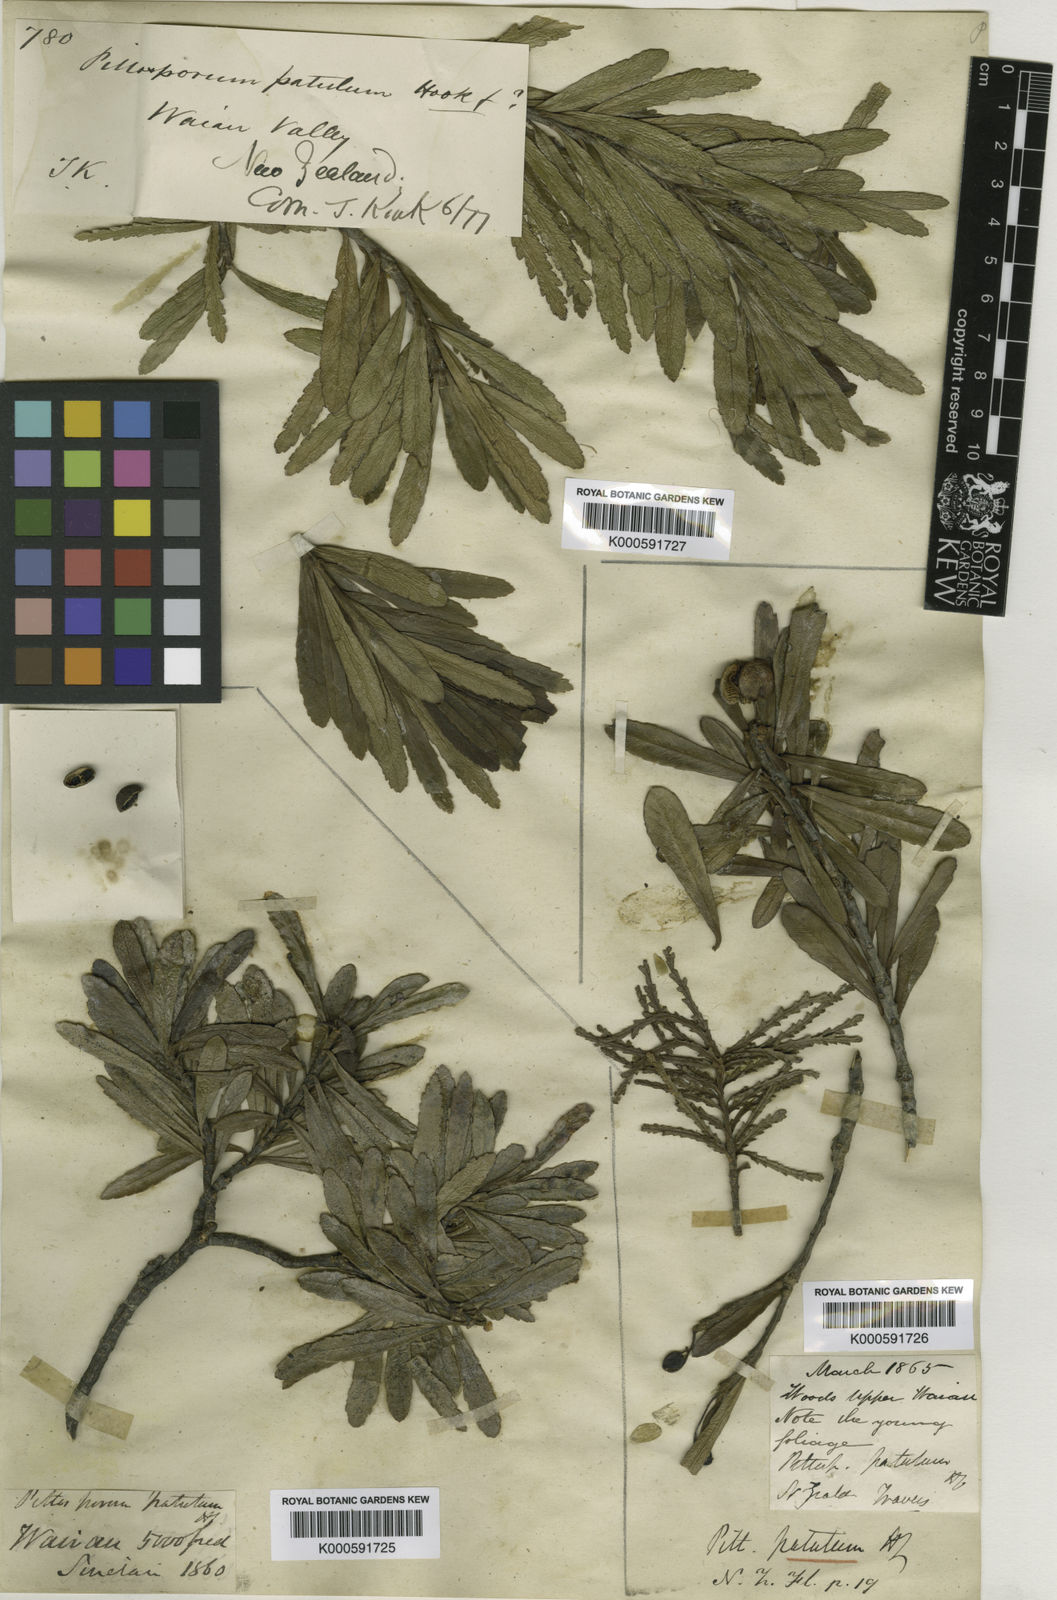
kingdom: Plantae
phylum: Tracheophyta
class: Magnoliopsida
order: Apiales
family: Pittosporaceae
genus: Pittosporum
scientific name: Pittosporum patulum
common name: Pitpat
